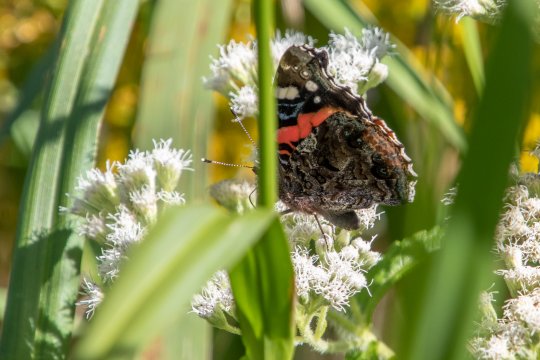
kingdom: Animalia
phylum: Arthropoda
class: Insecta
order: Lepidoptera
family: Nymphalidae
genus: Vanessa
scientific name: Vanessa atalanta
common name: Red Admiral
